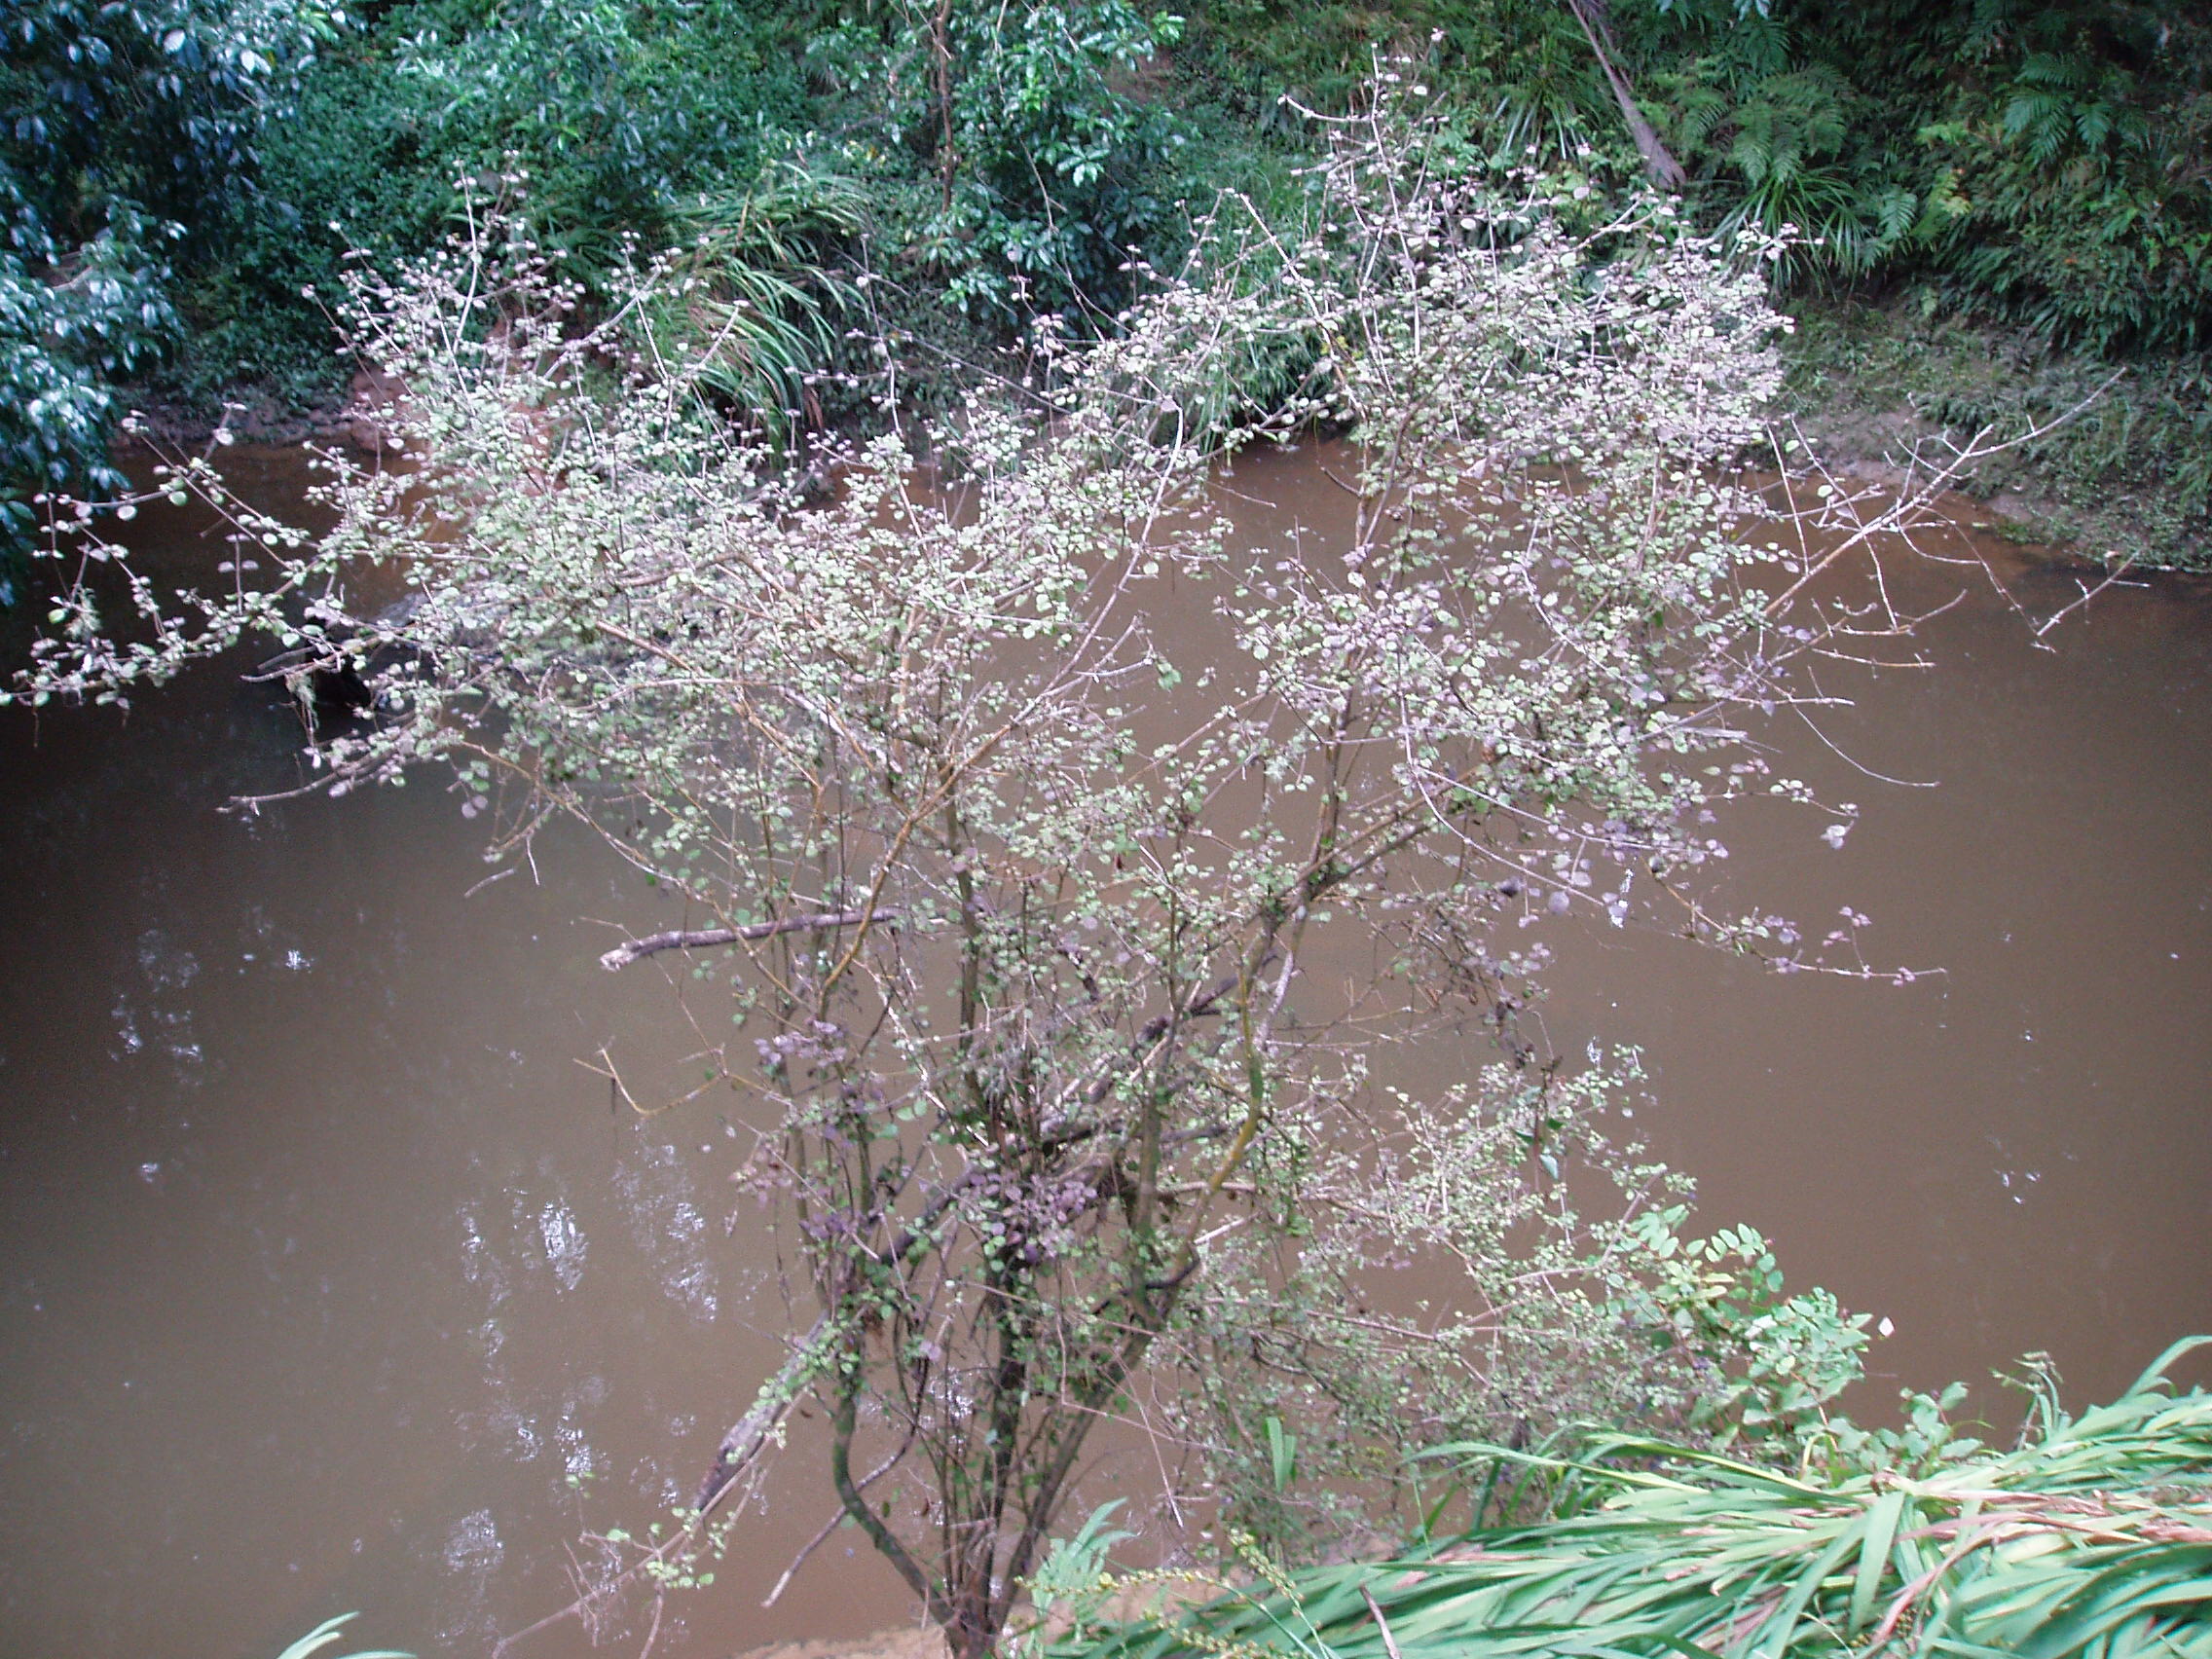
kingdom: Plantae
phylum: Tracheophyta
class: Magnoliopsida
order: Gentianales
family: Rubiaceae
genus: Coprosma
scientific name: Coprosma rotundifolia
